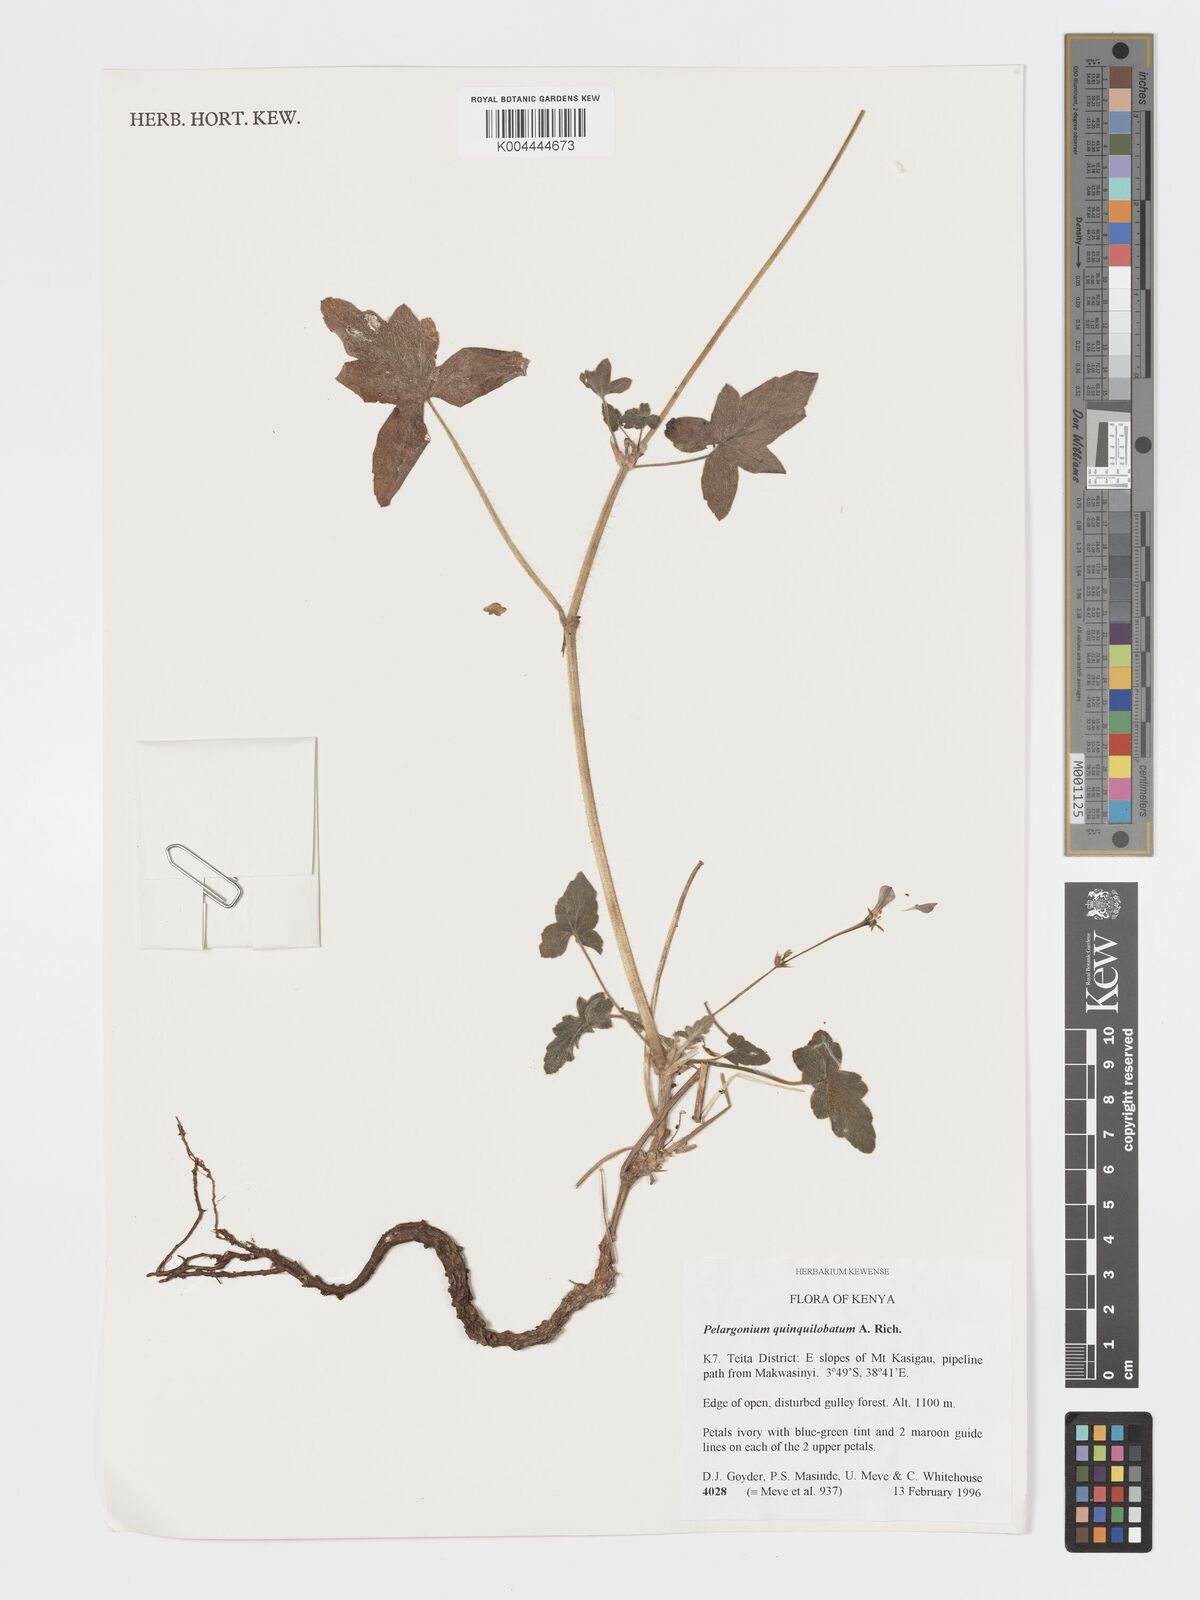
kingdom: Plantae
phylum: Tracheophyta
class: Magnoliopsida
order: Geraniales
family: Geraniaceae
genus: Pelargonium
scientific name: Pelargonium quinquelobatum
